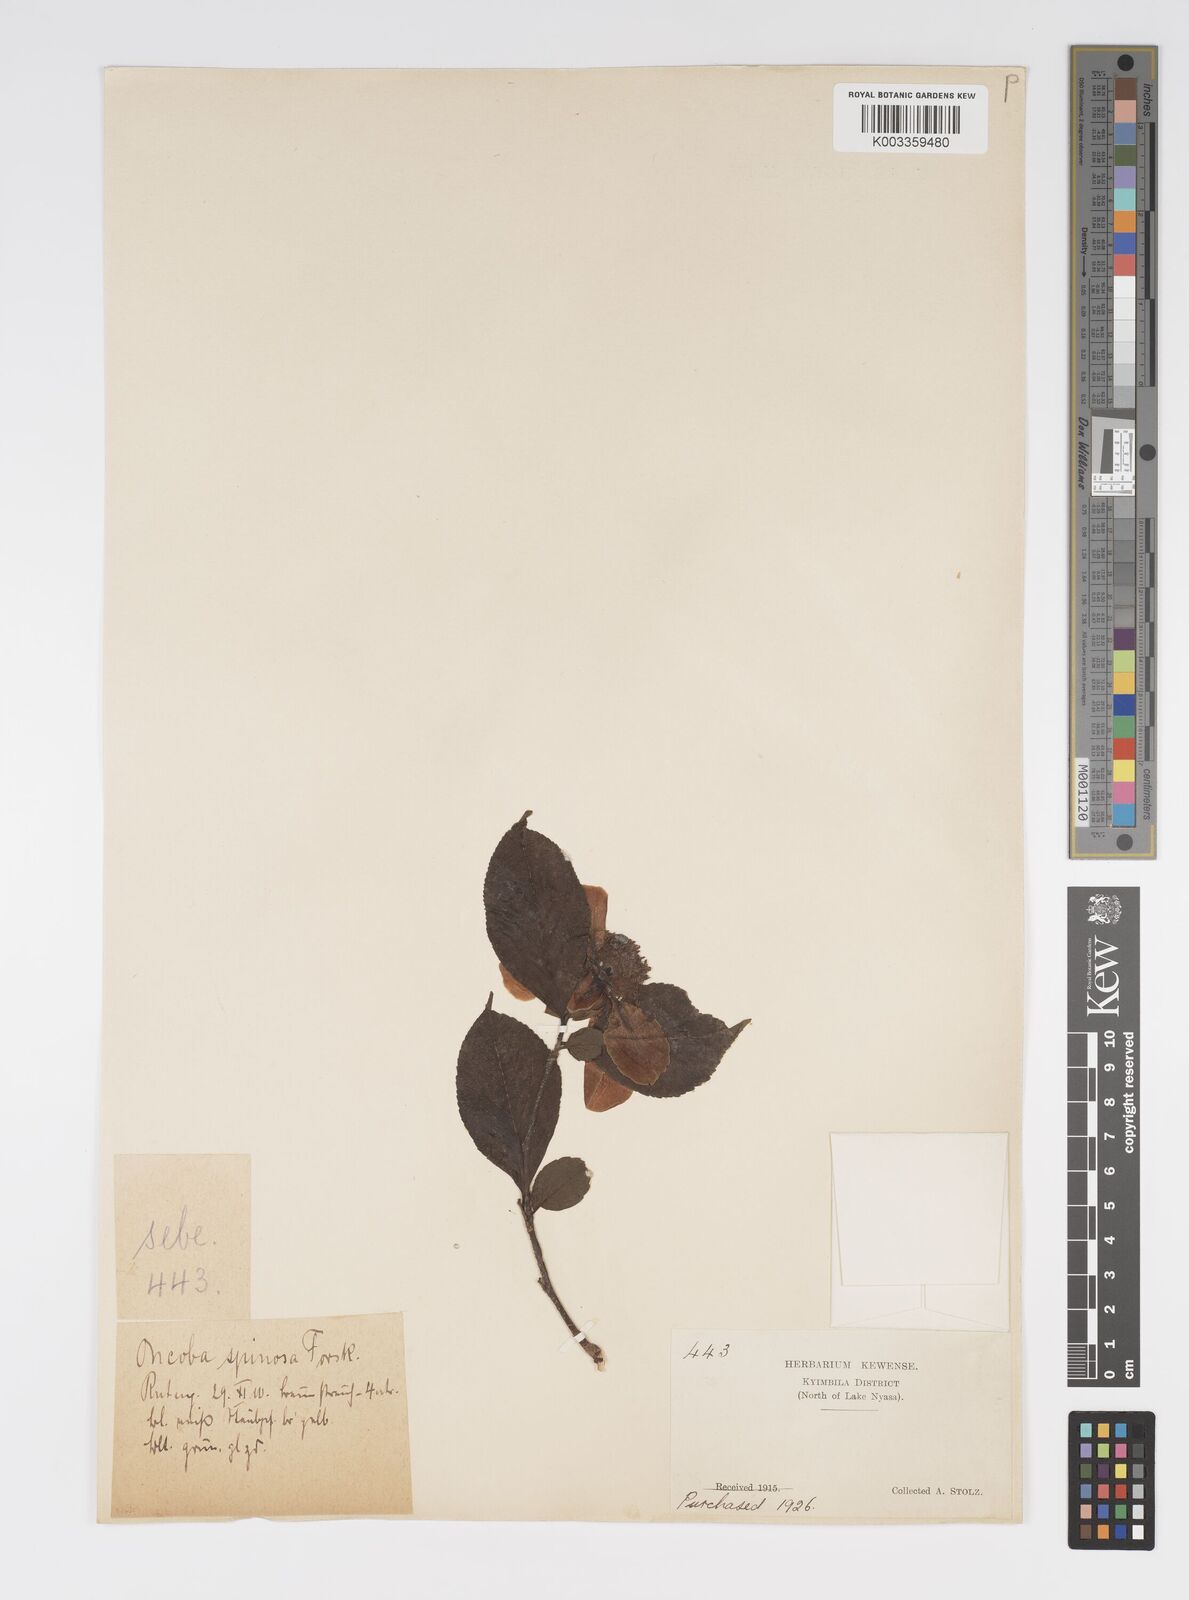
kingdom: Plantae
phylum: Tracheophyta
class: Magnoliopsida
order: Malpighiales
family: Salicaceae
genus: Oncoba
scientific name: Oncoba spinosa
